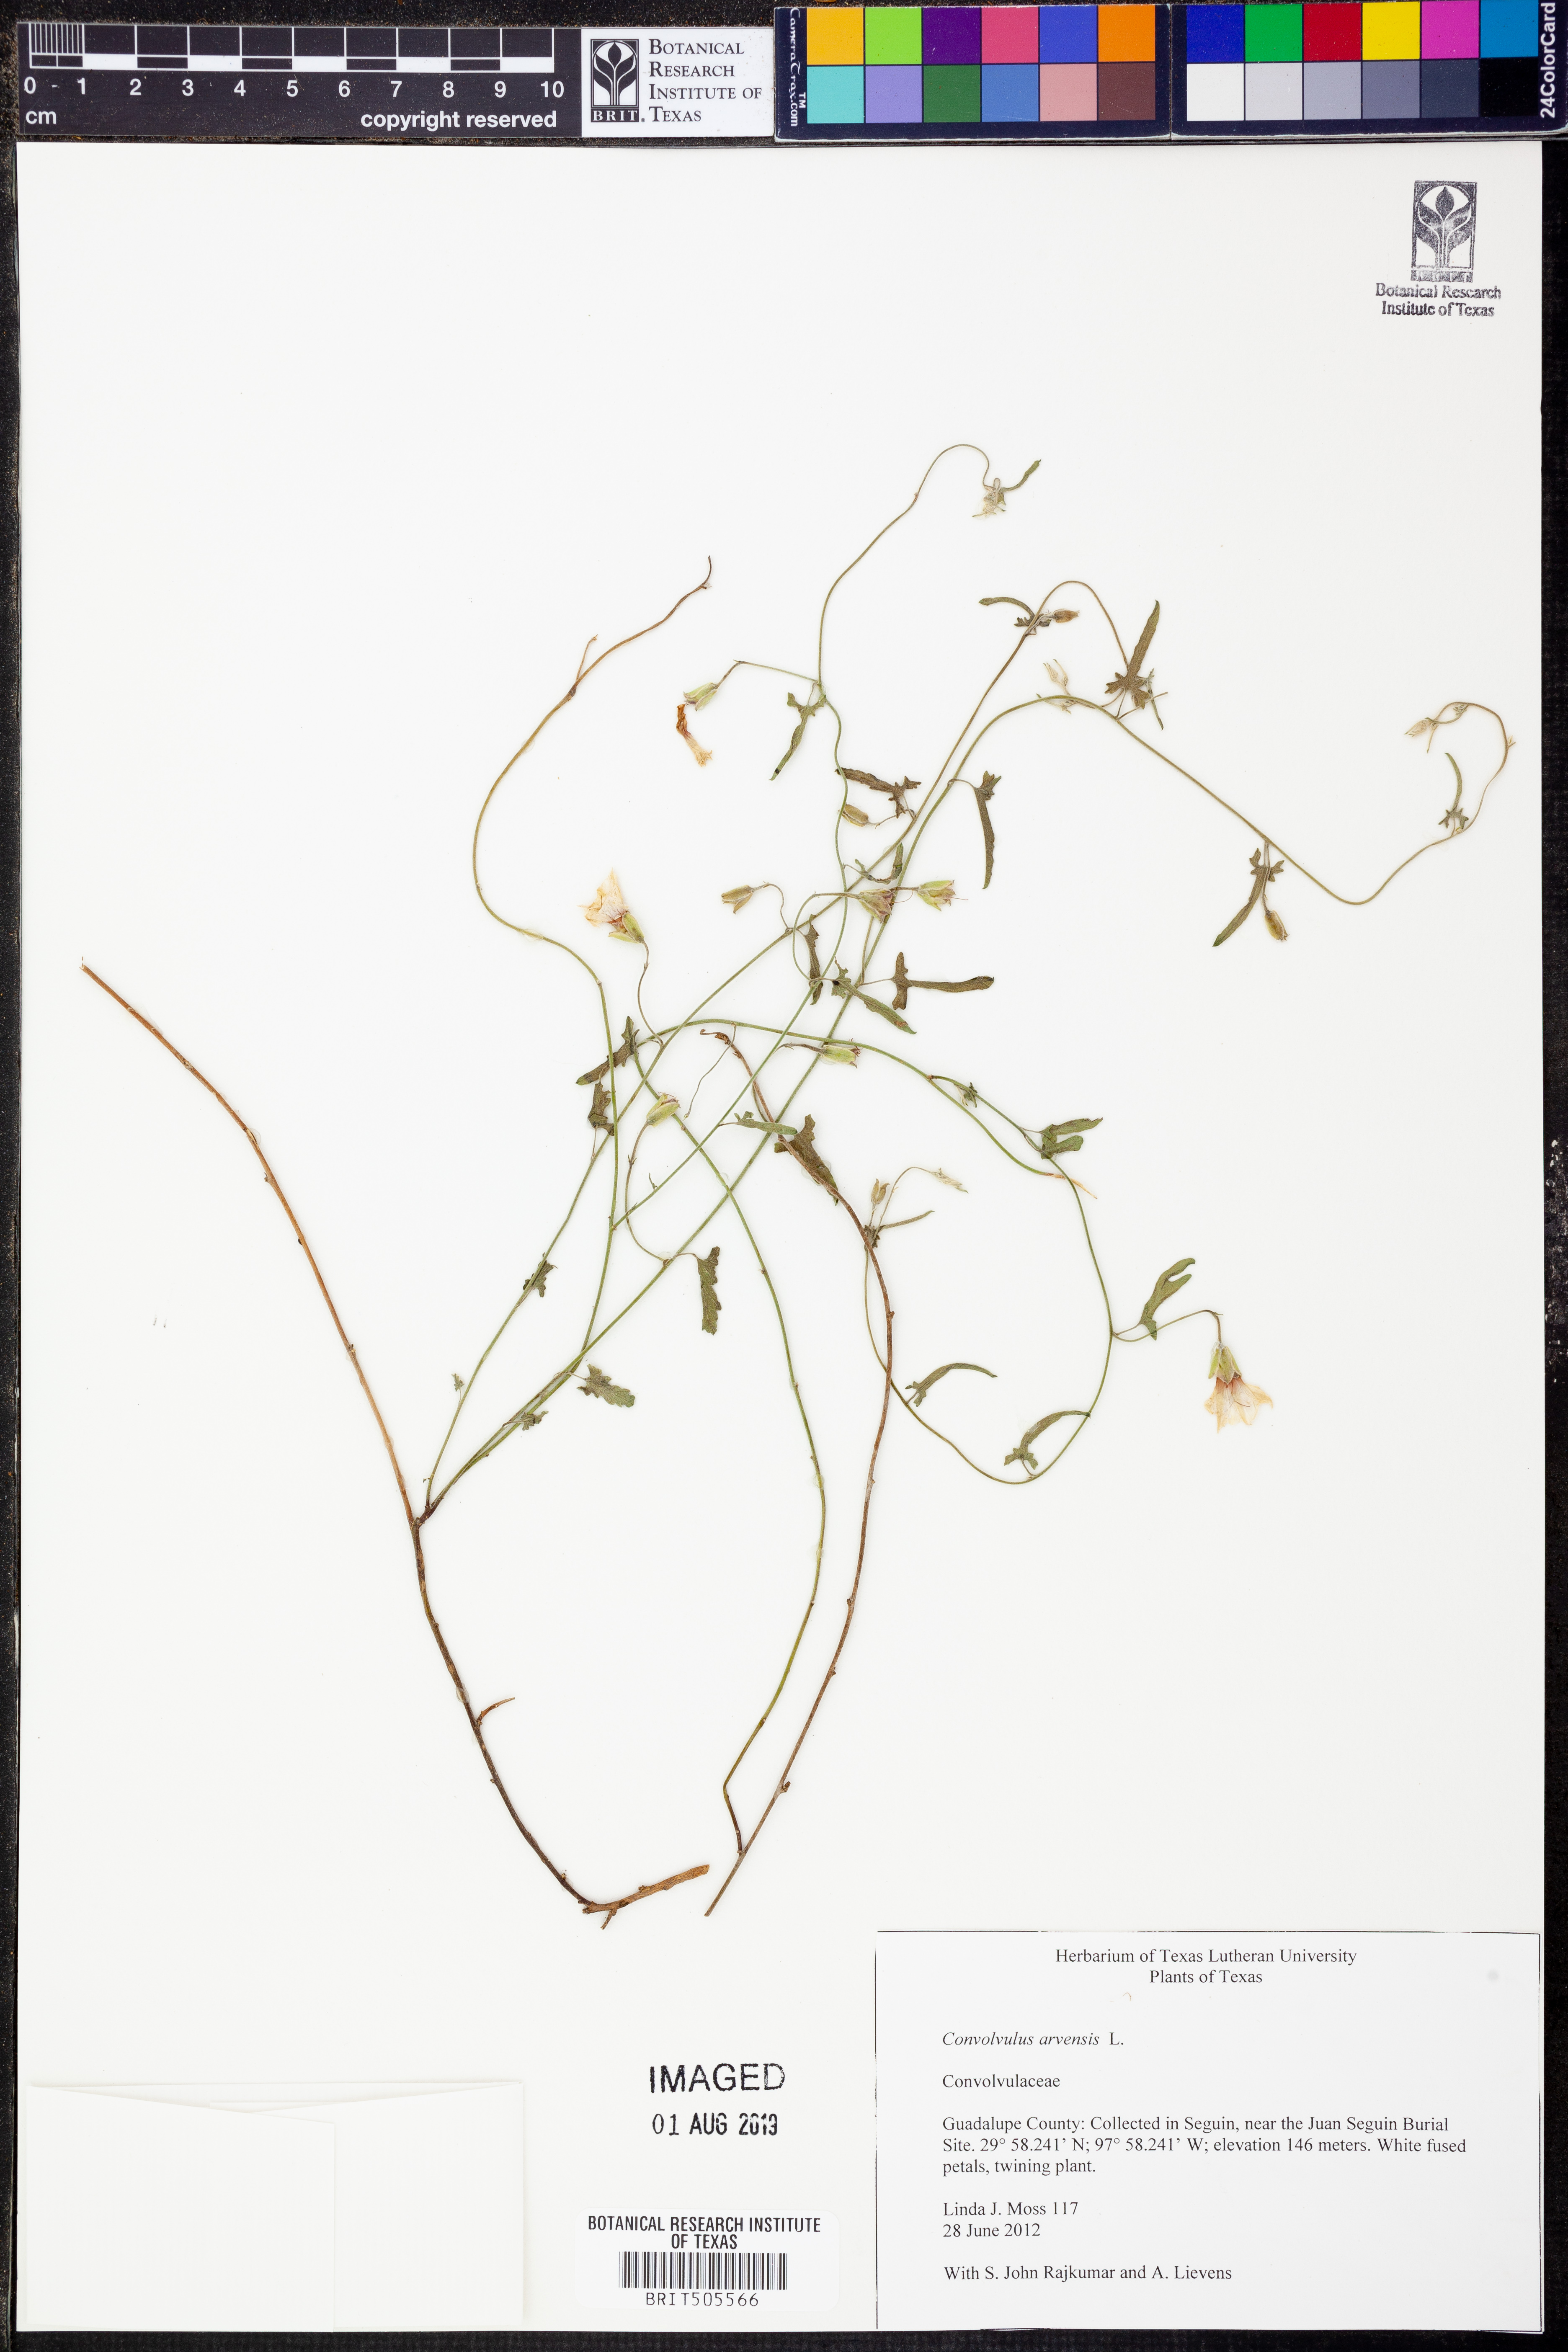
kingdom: Plantae
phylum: Tracheophyta
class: Magnoliopsida
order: Solanales
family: Convolvulaceae
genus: Convolvulus
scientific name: Convolvulus equitans
